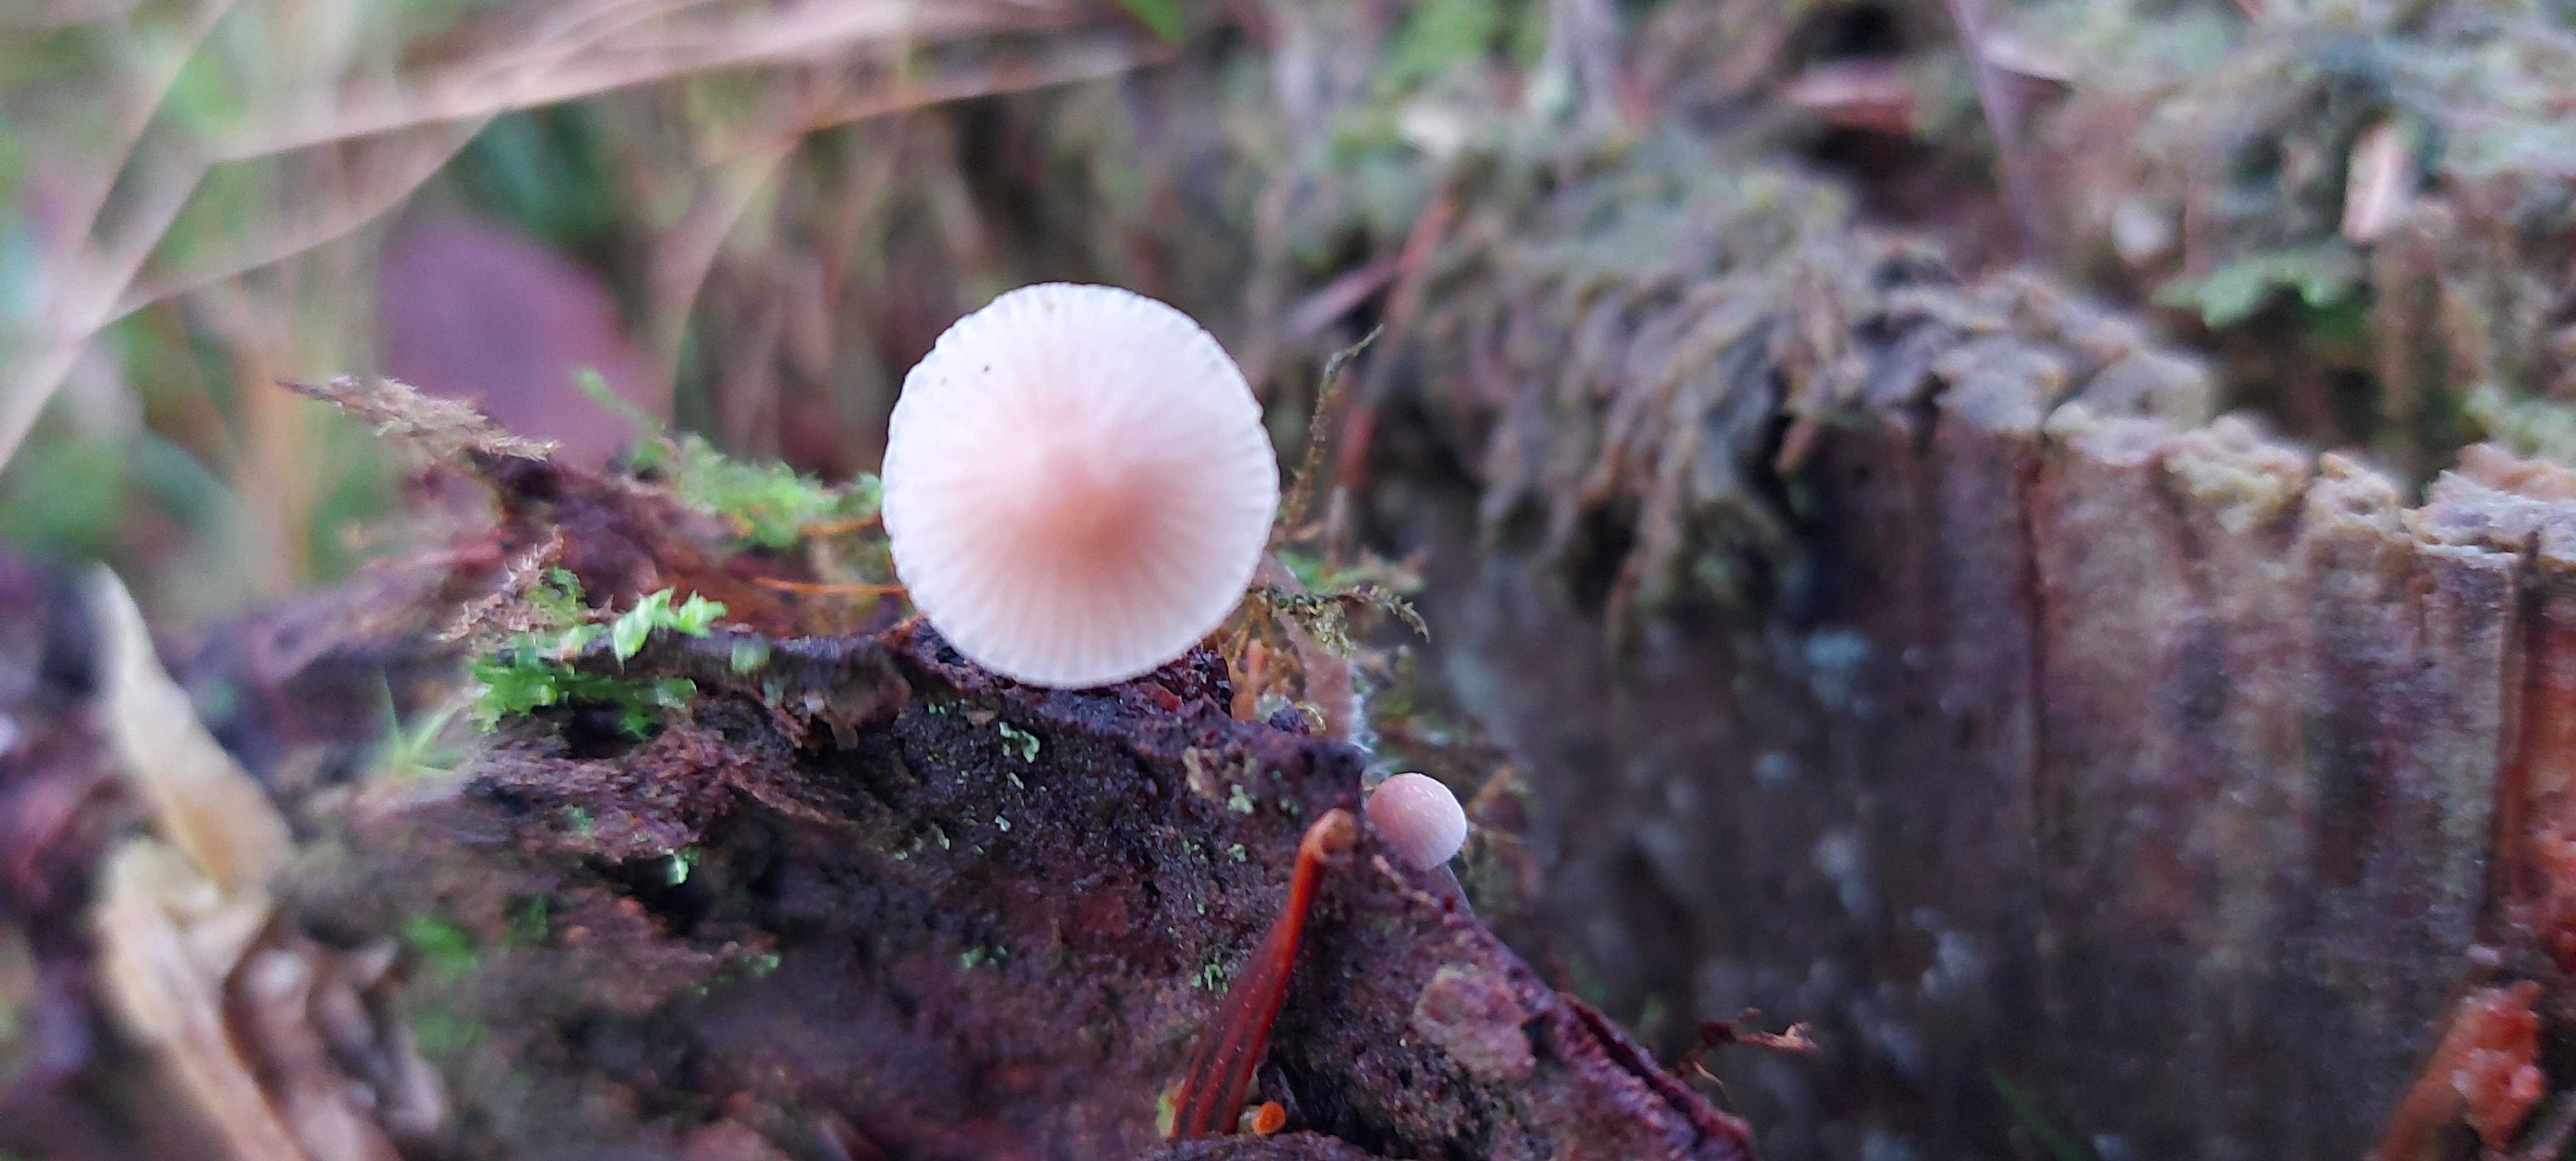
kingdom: Fungi
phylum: Basidiomycota
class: Agaricomycetes
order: Agaricales
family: Mycenaceae
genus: Mycena
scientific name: Mycena metata
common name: rødlig huesvamp
